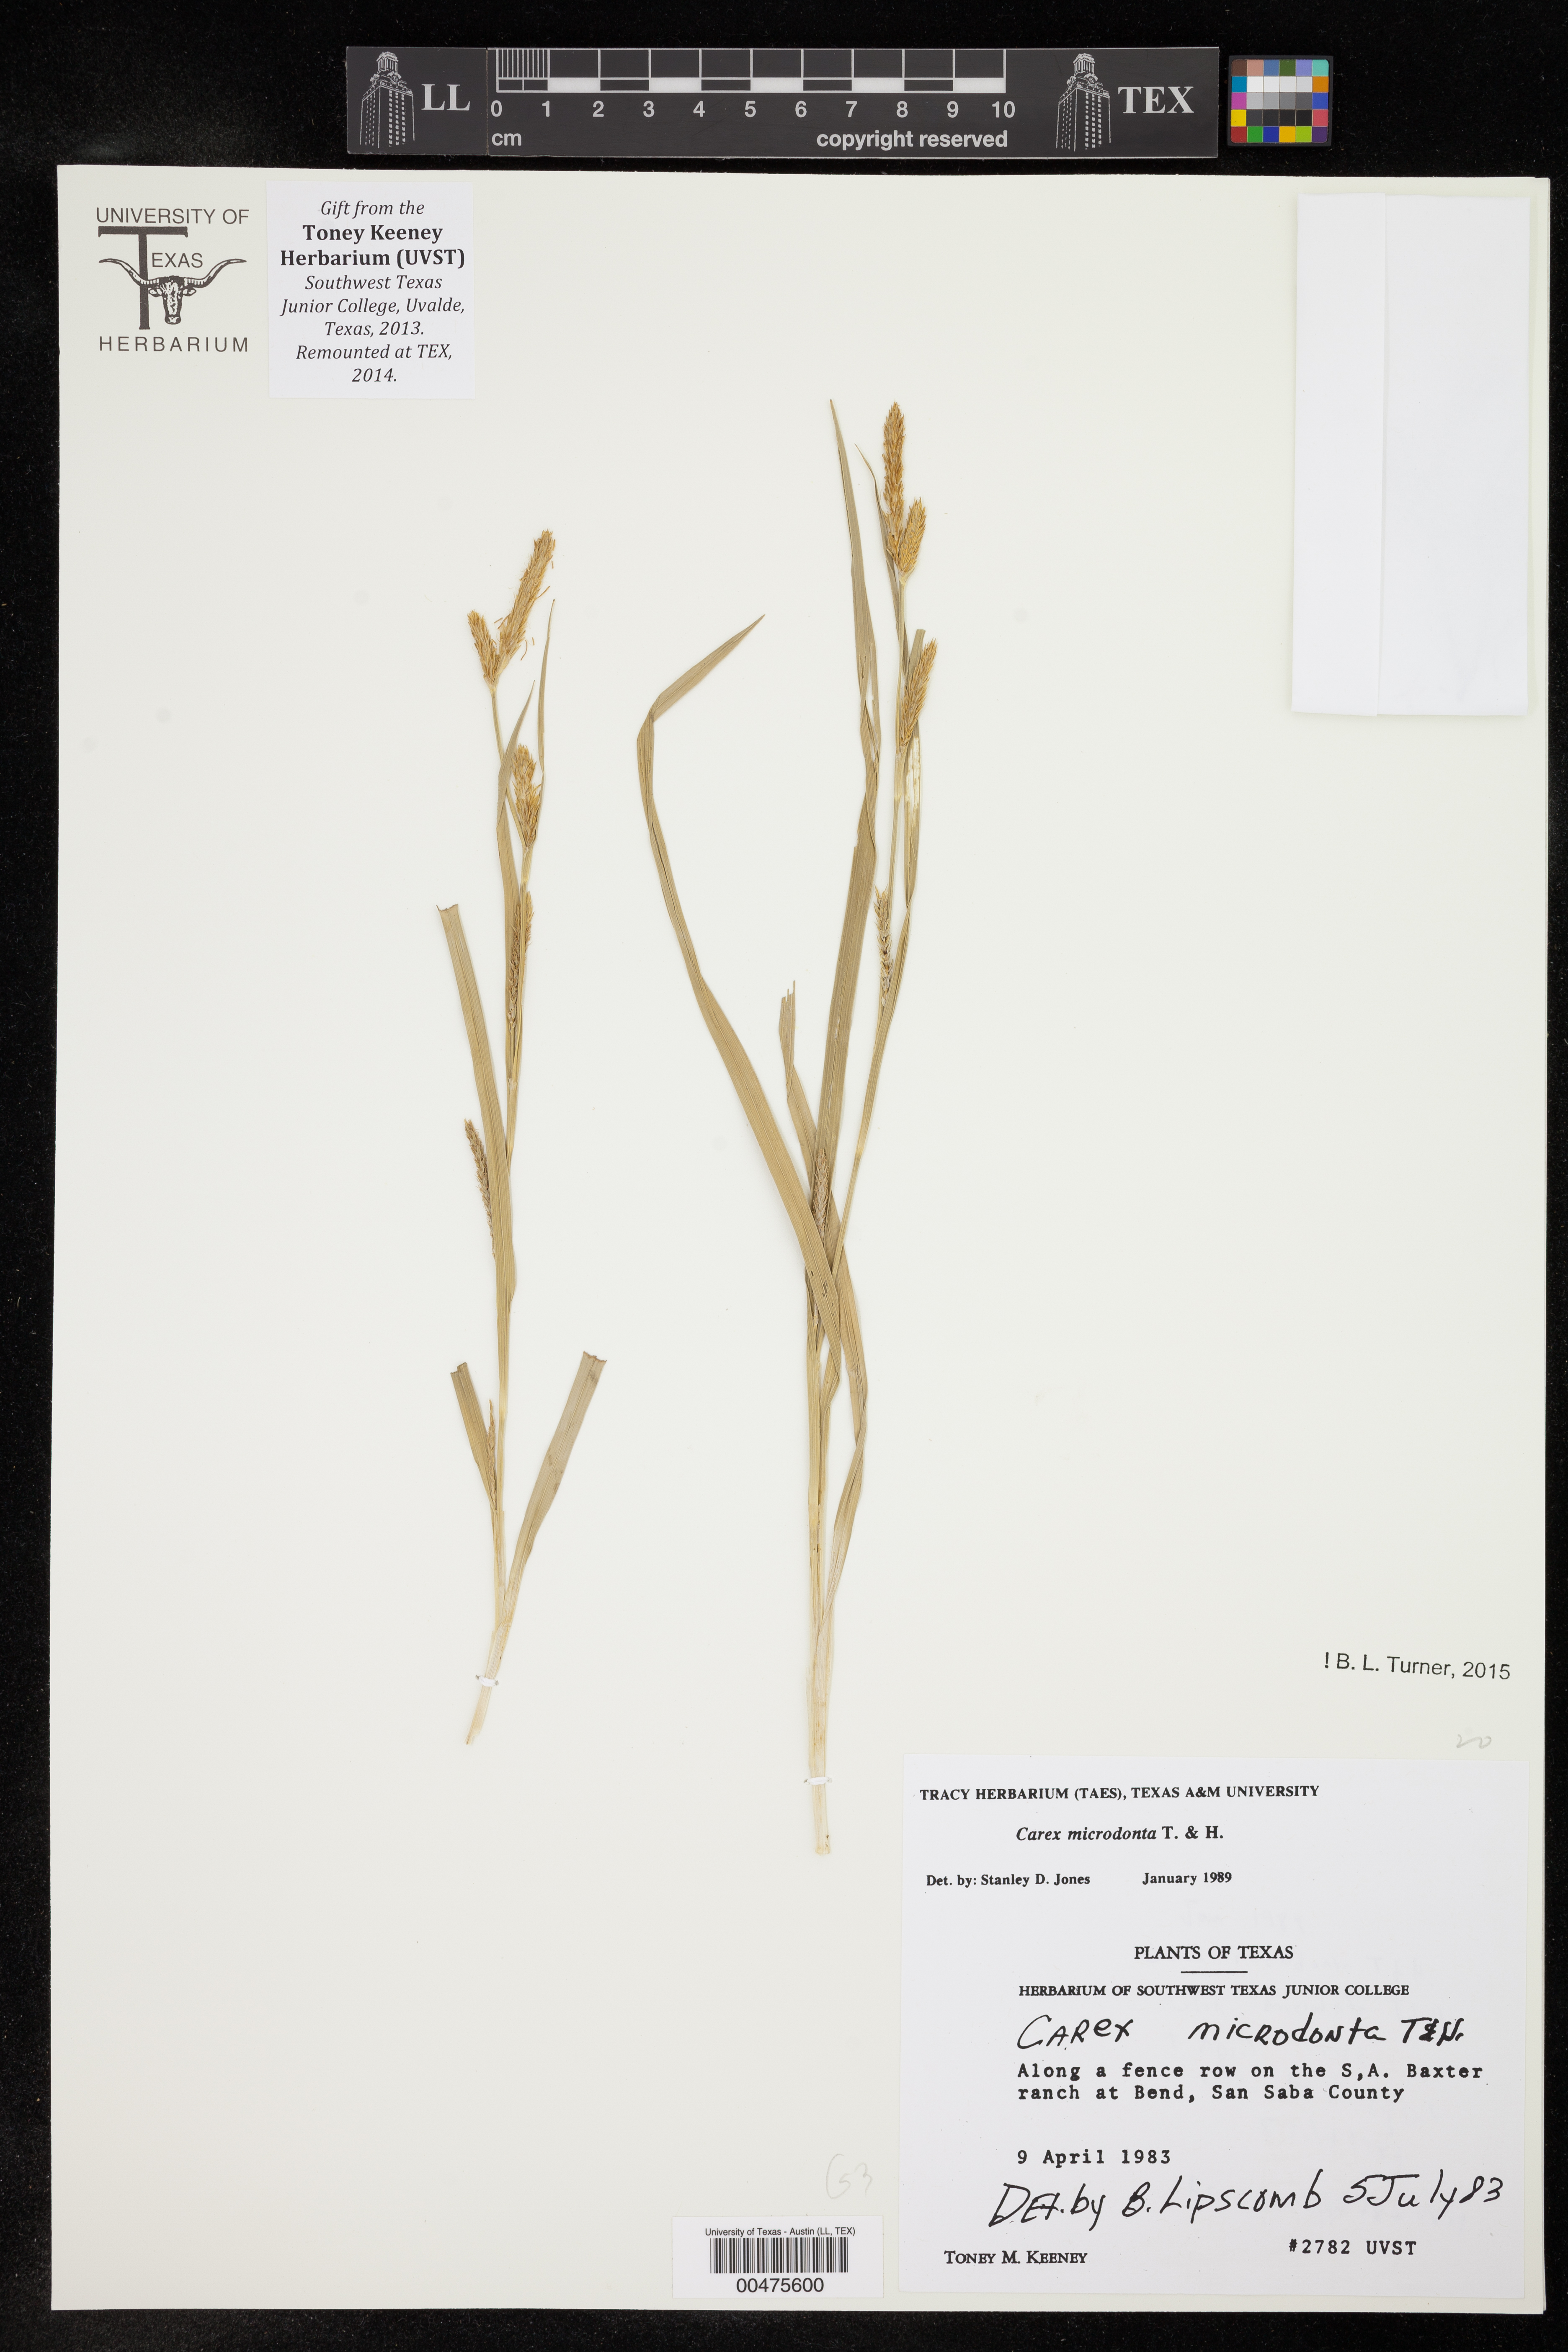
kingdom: Plantae
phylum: Tracheophyta
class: Liliopsida
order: Poales
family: Cyperaceae
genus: Carex
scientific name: Carex microdonta
